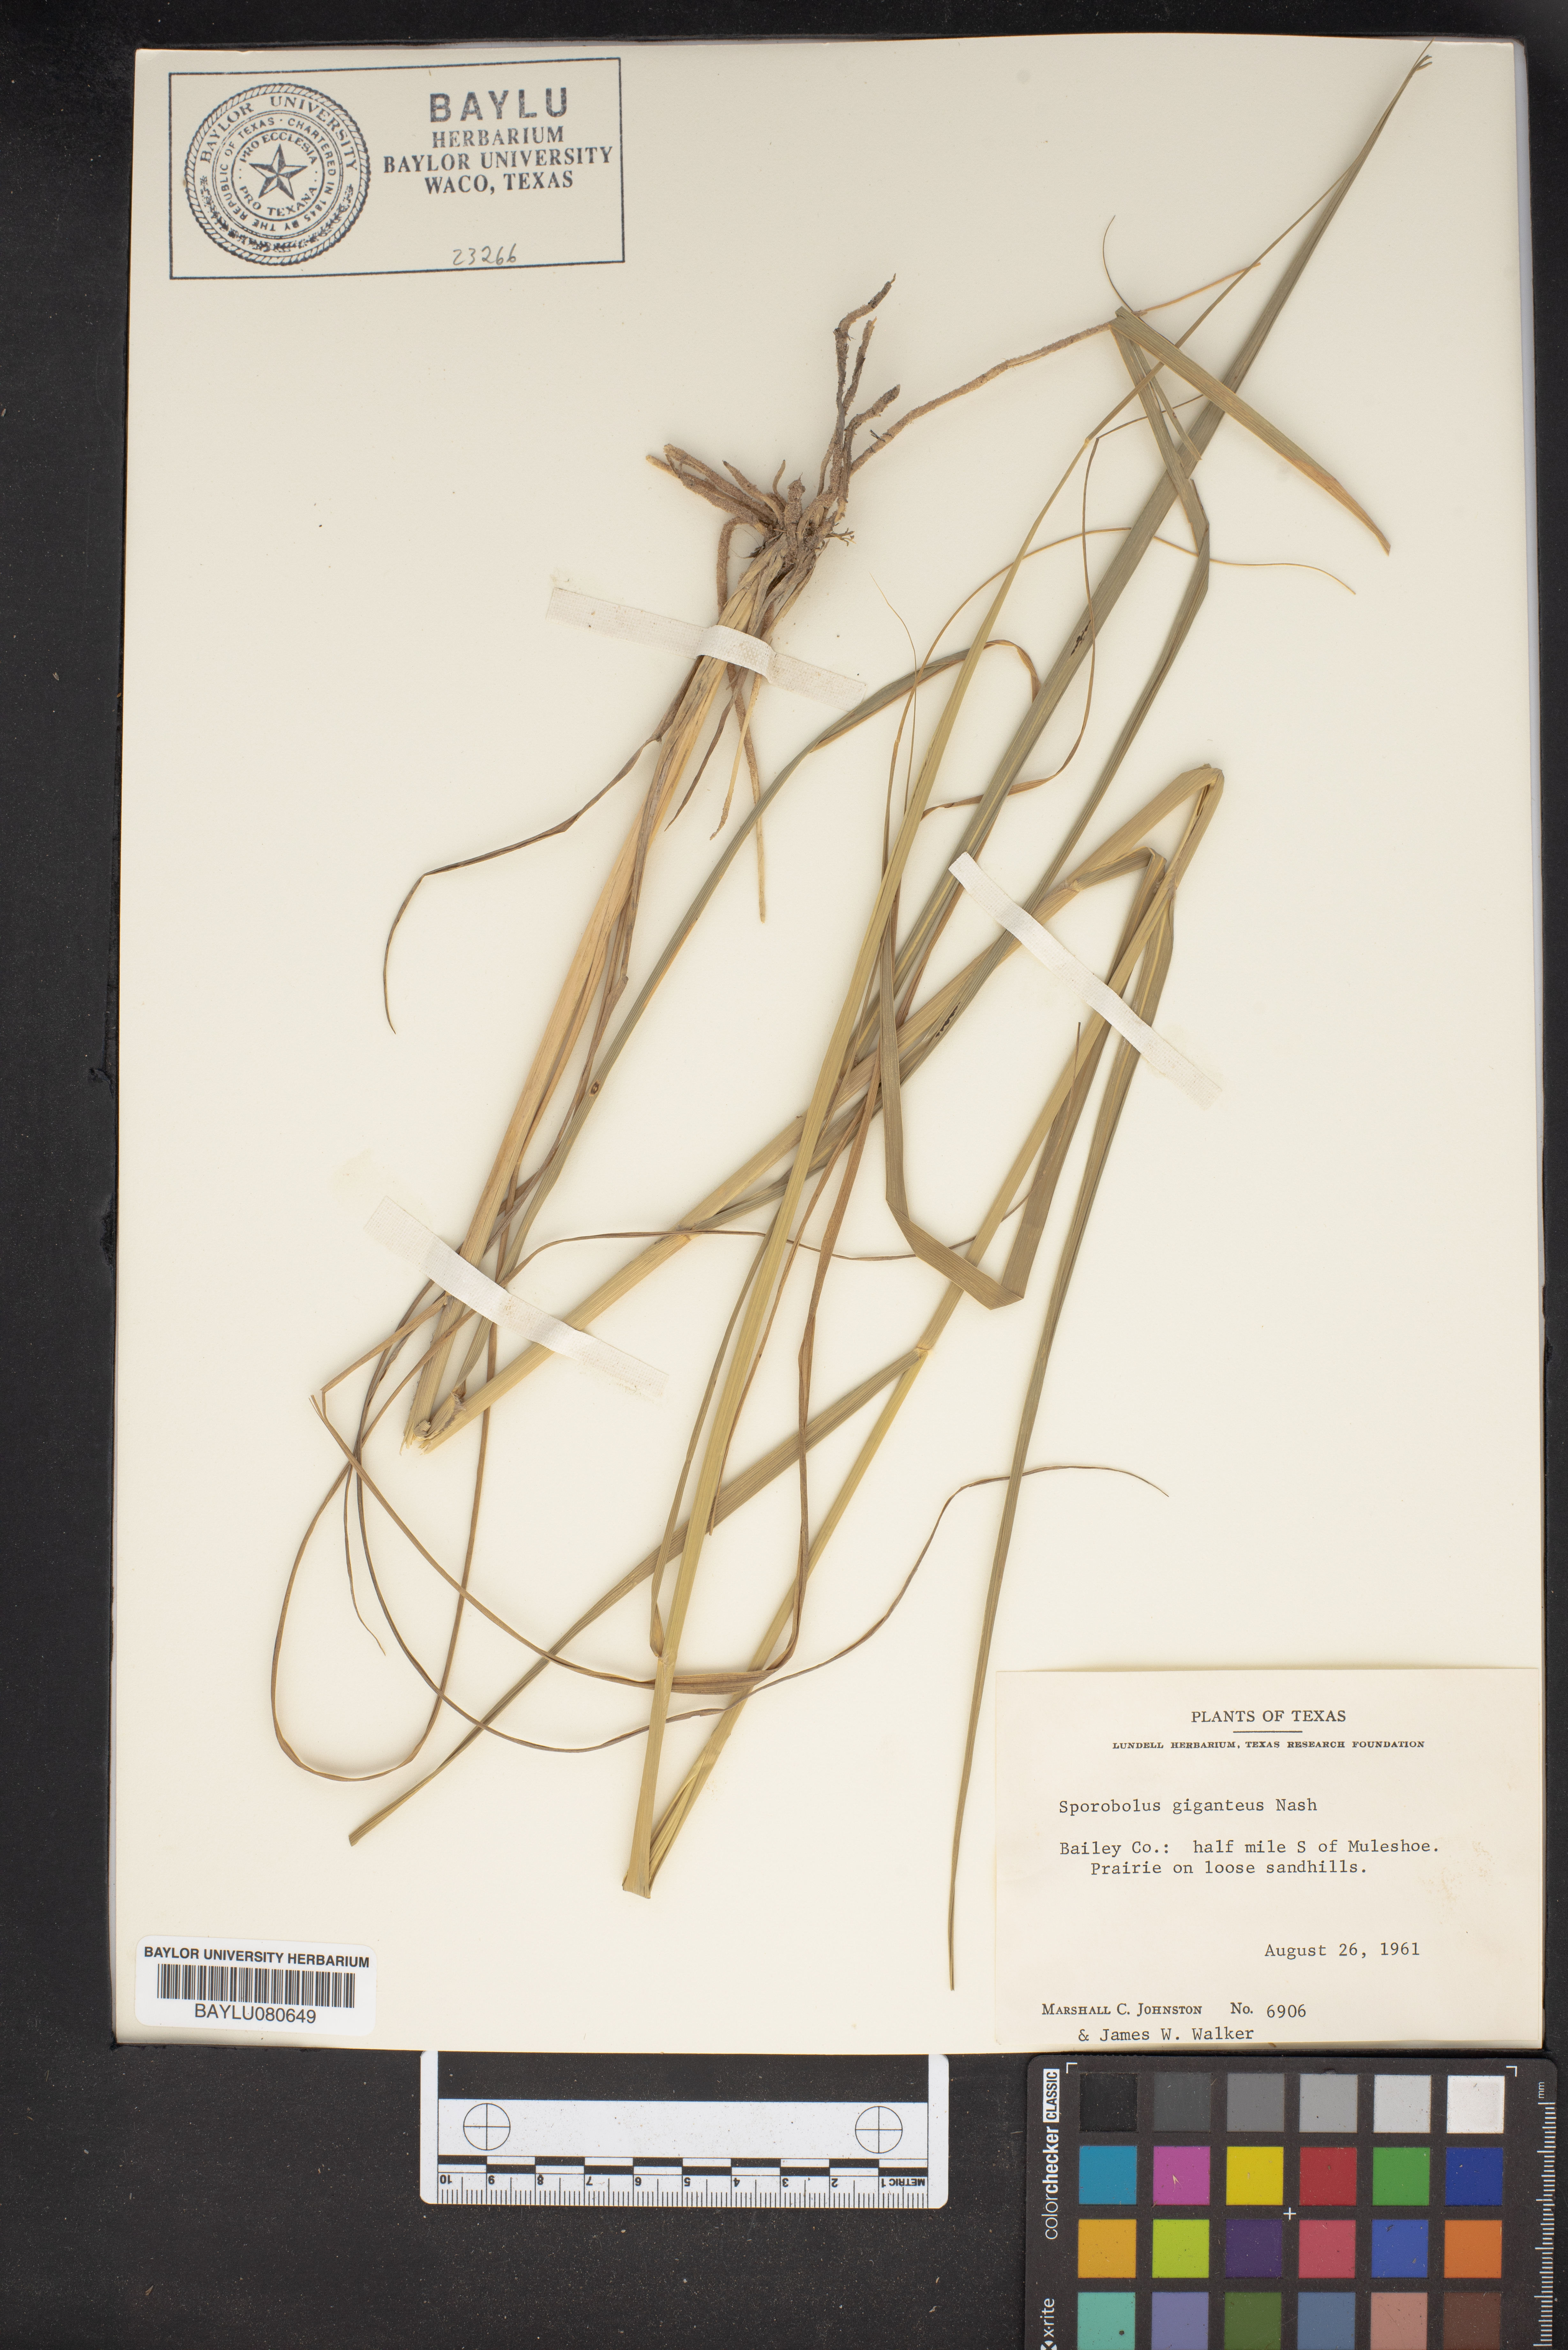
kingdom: Plantae
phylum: Tracheophyta
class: Liliopsida
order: Poales
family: Poaceae
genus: Sporobolus
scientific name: Sporobolus giganteus
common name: Giant dropseed
